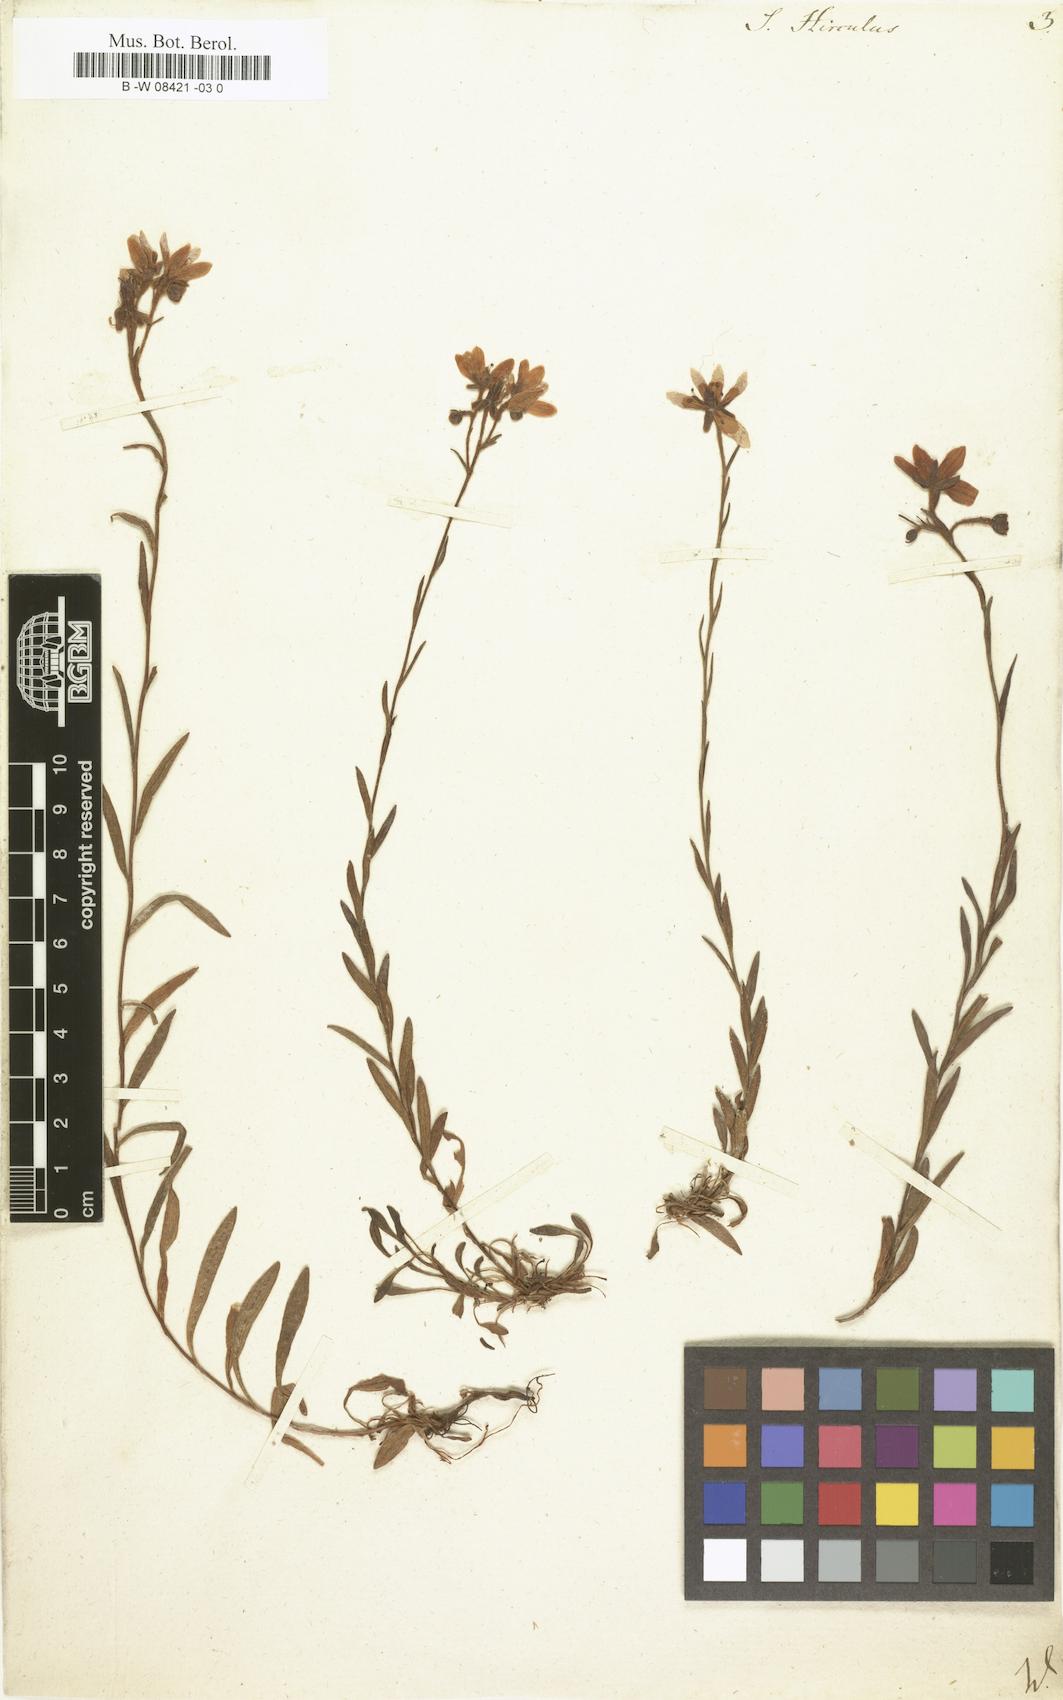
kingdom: Plantae
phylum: Tracheophyta
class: Magnoliopsida
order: Saxifragales
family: Saxifragaceae
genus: Saxifraga
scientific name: Saxifraga hirculus
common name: Yellow marsh saxifrage
